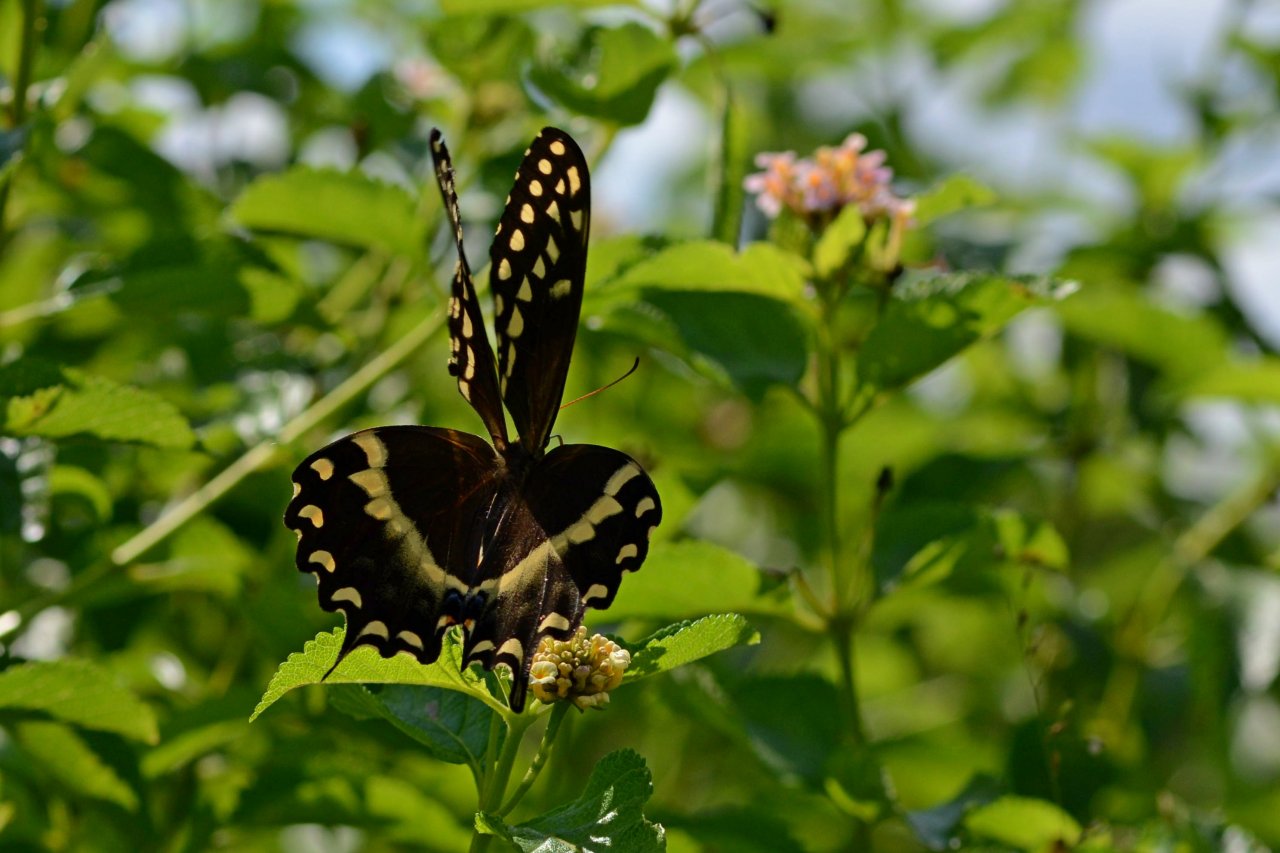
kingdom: Animalia
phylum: Arthropoda
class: Insecta
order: Lepidoptera
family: Papilionidae
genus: Pterourus
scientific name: Pterourus palamedes
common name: Palamedes Swallowtail
